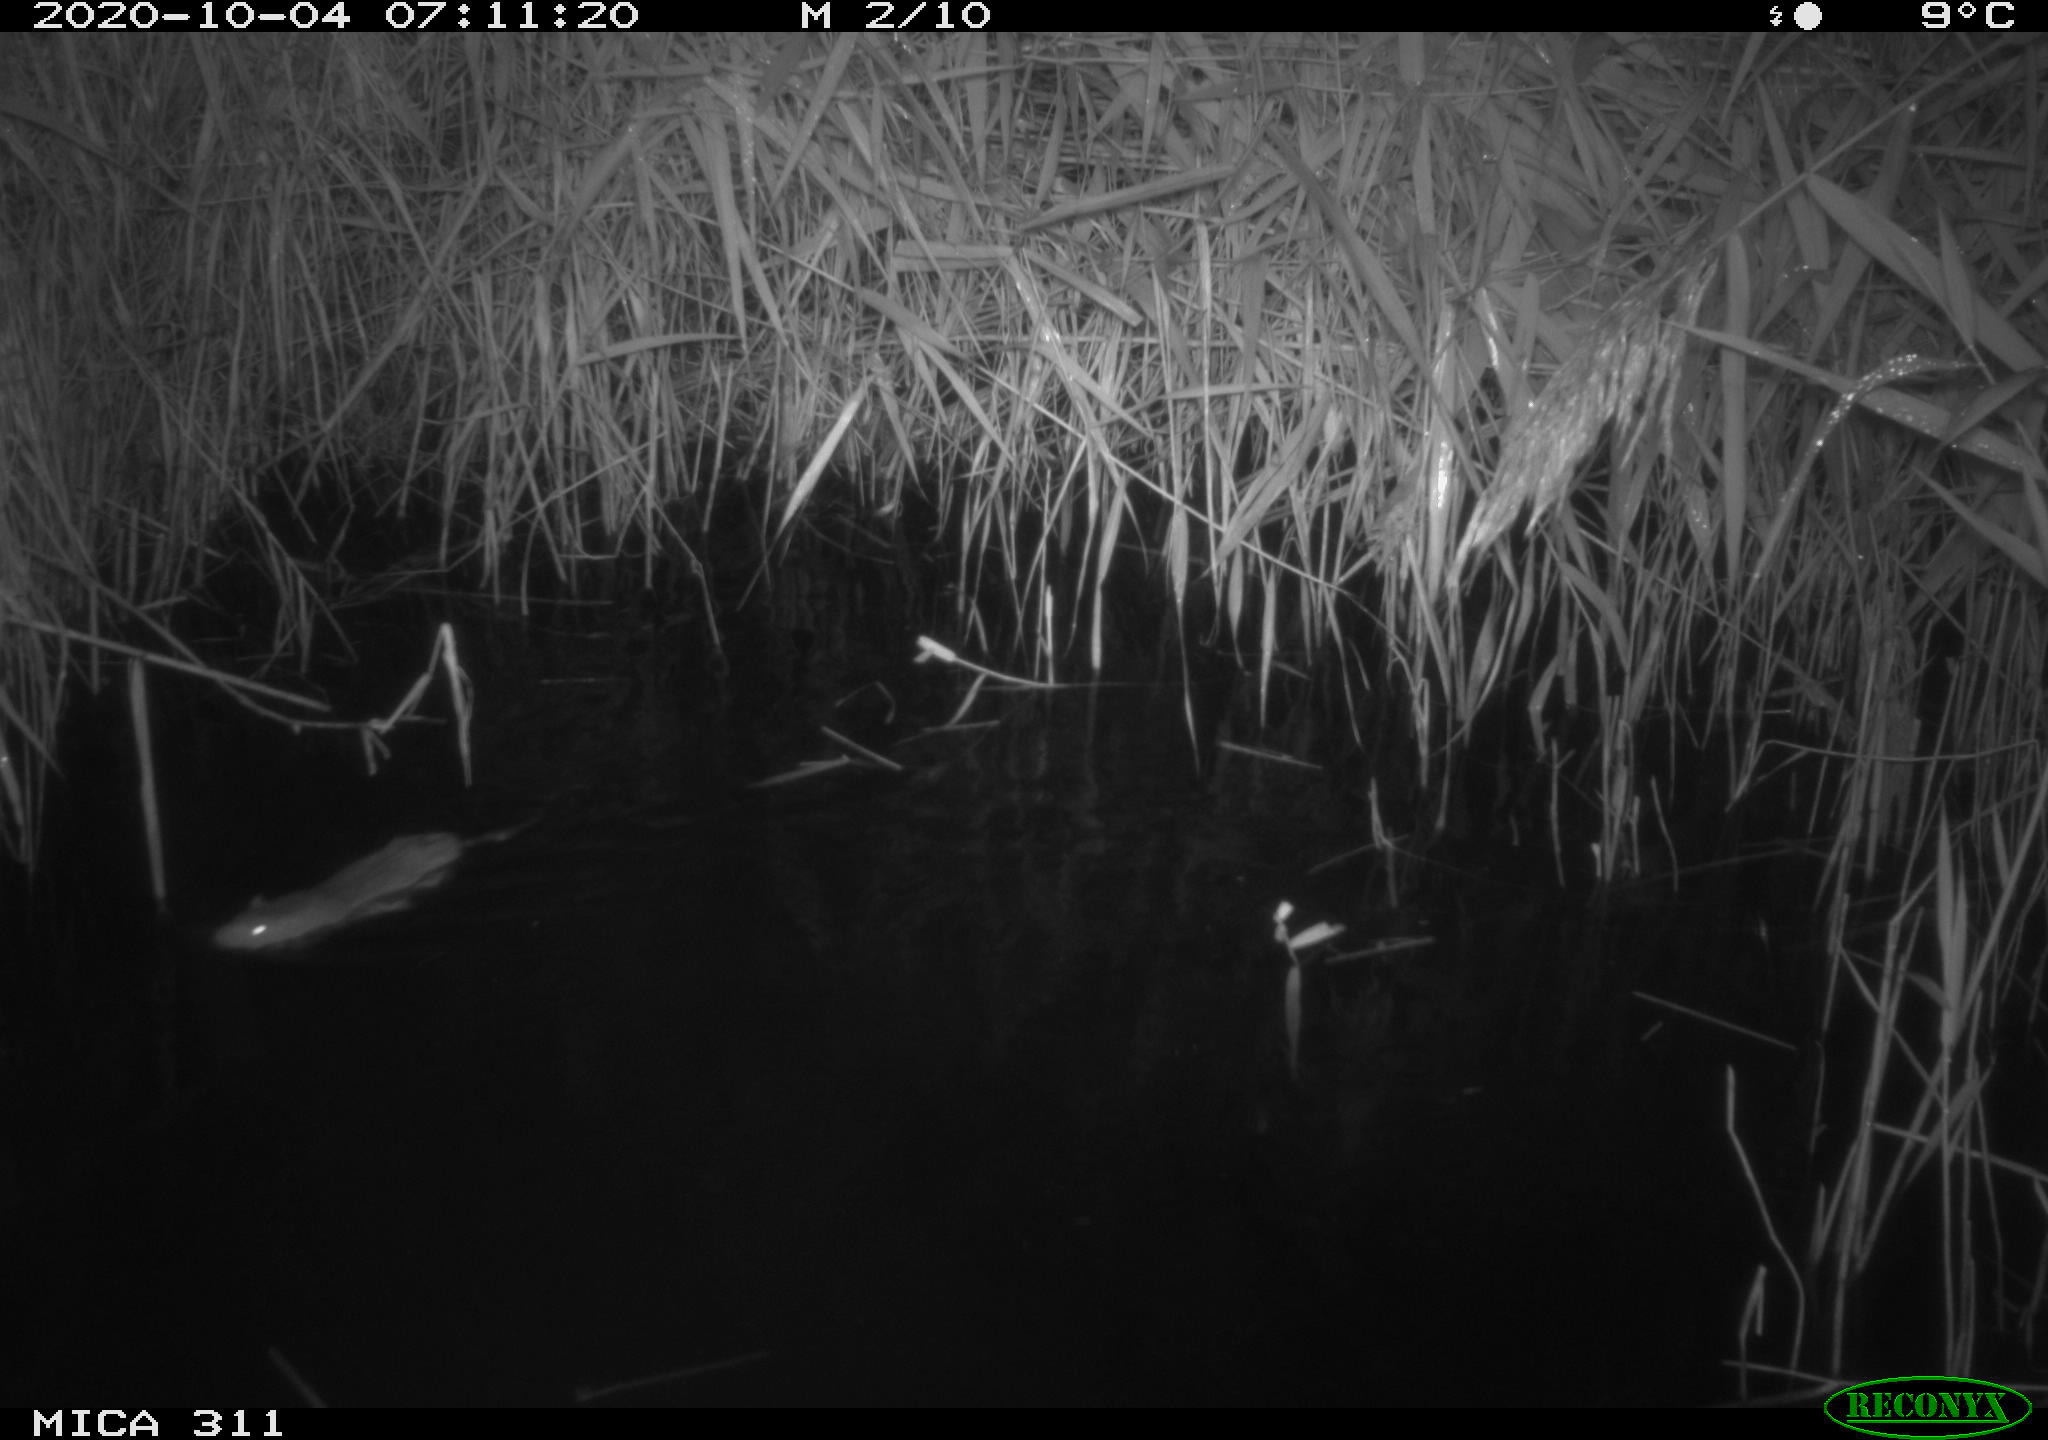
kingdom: Animalia
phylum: Chordata
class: Mammalia
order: Rodentia
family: Muridae
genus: Rattus
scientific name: Rattus norvegicus
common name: Brown rat
